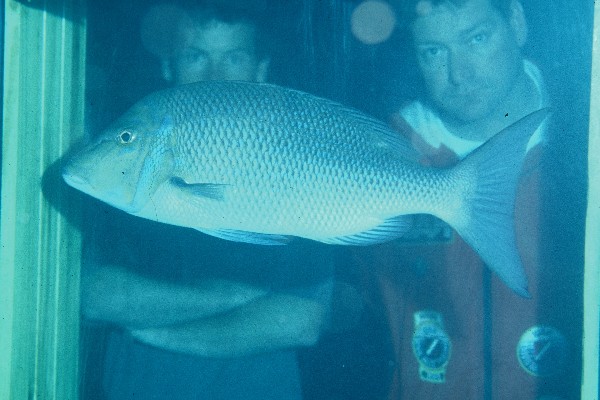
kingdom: Animalia
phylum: Chordata
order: Perciformes
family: Lethrinidae
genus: Lethrinus
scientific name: Lethrinus nebulosus
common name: Spangled emperor
